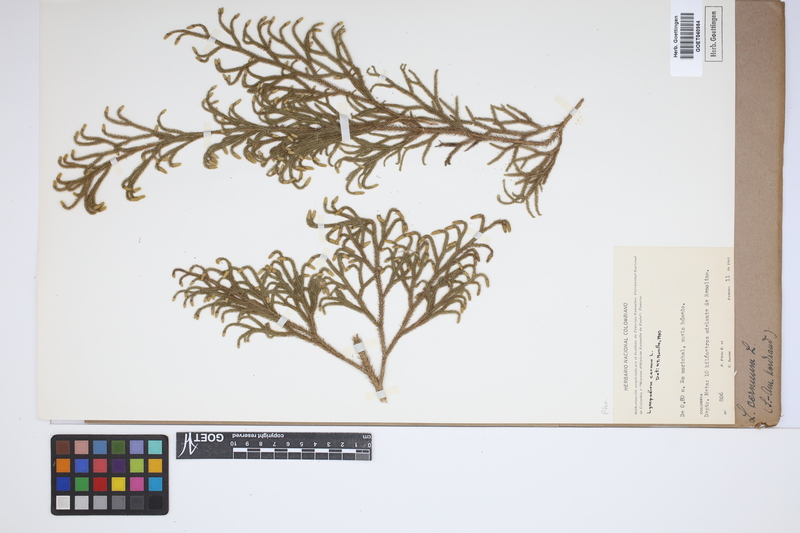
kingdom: Plantae
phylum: Tracheophyta
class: Lycopodiopsida
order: Lycopodiales
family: Lycopodiaceae
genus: Palhinhaea
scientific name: Palhinhaea cernua
